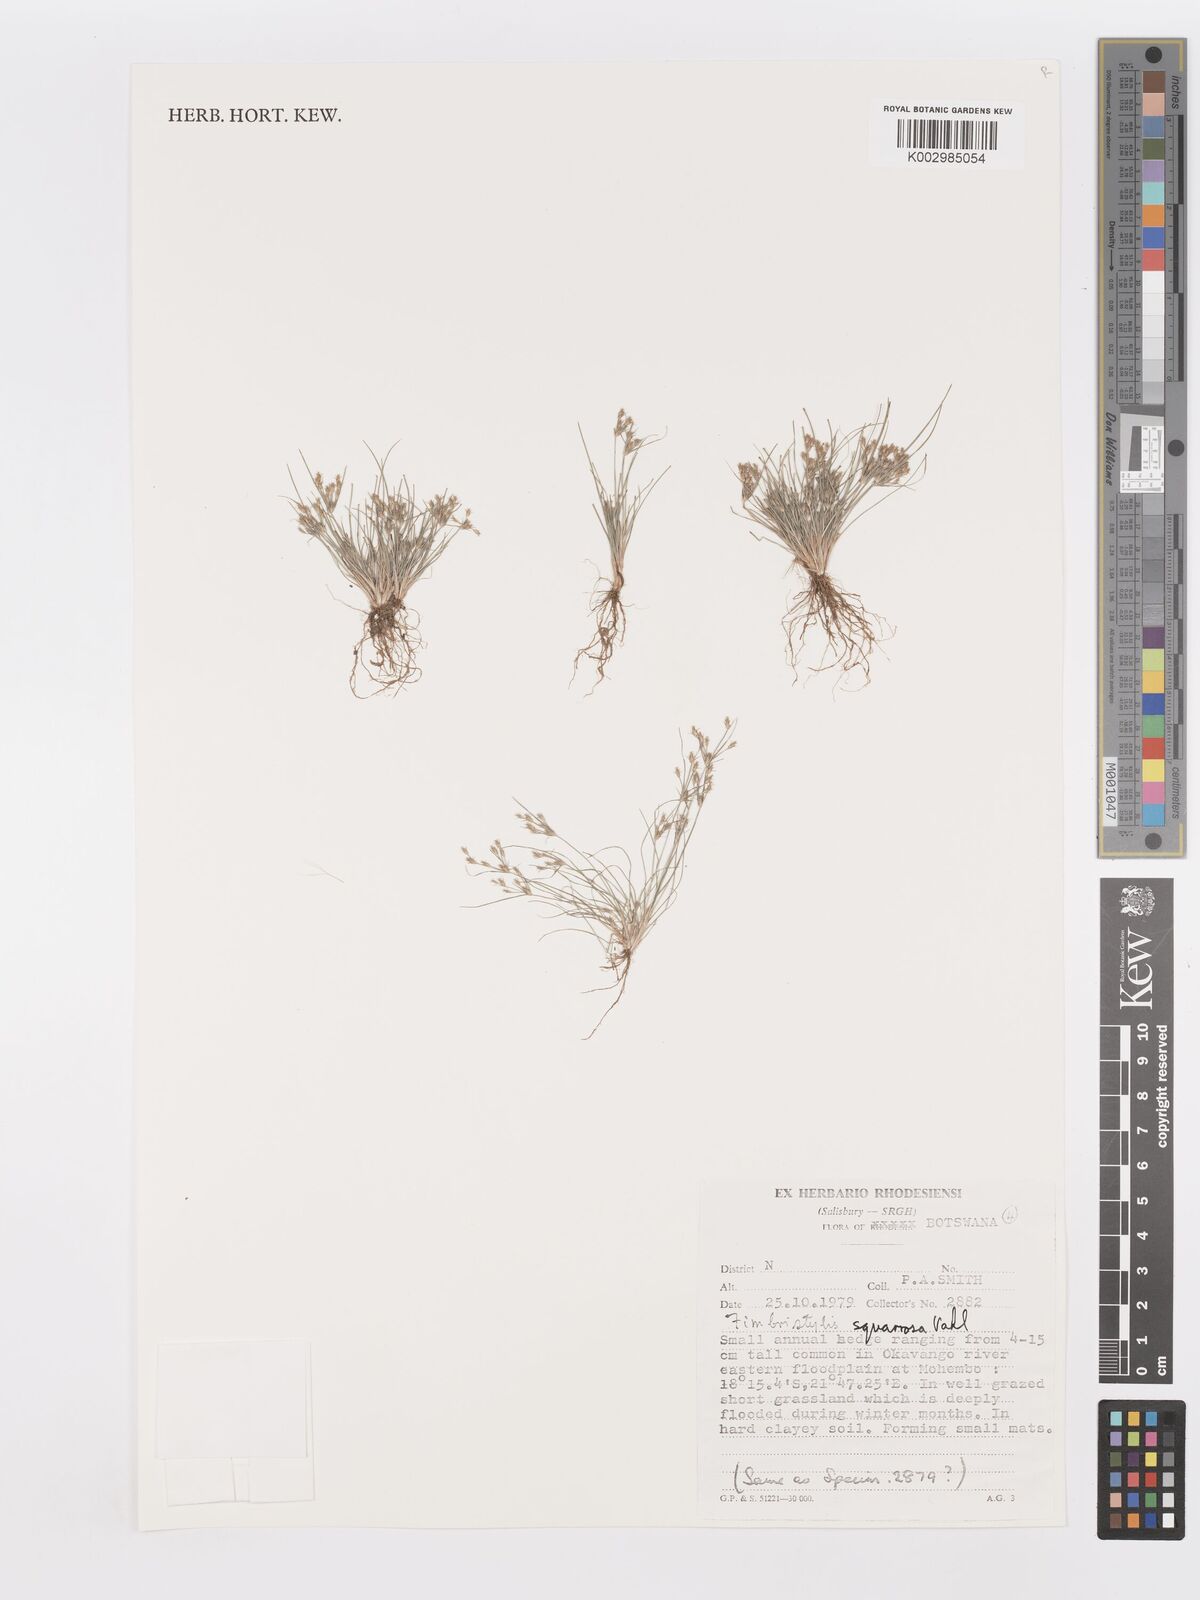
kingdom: Plantae
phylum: Tracheophyta
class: Liliopsida
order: Poales
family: Cyperaceae
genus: Fimbristylis
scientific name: Fimbristylis squarrosa
